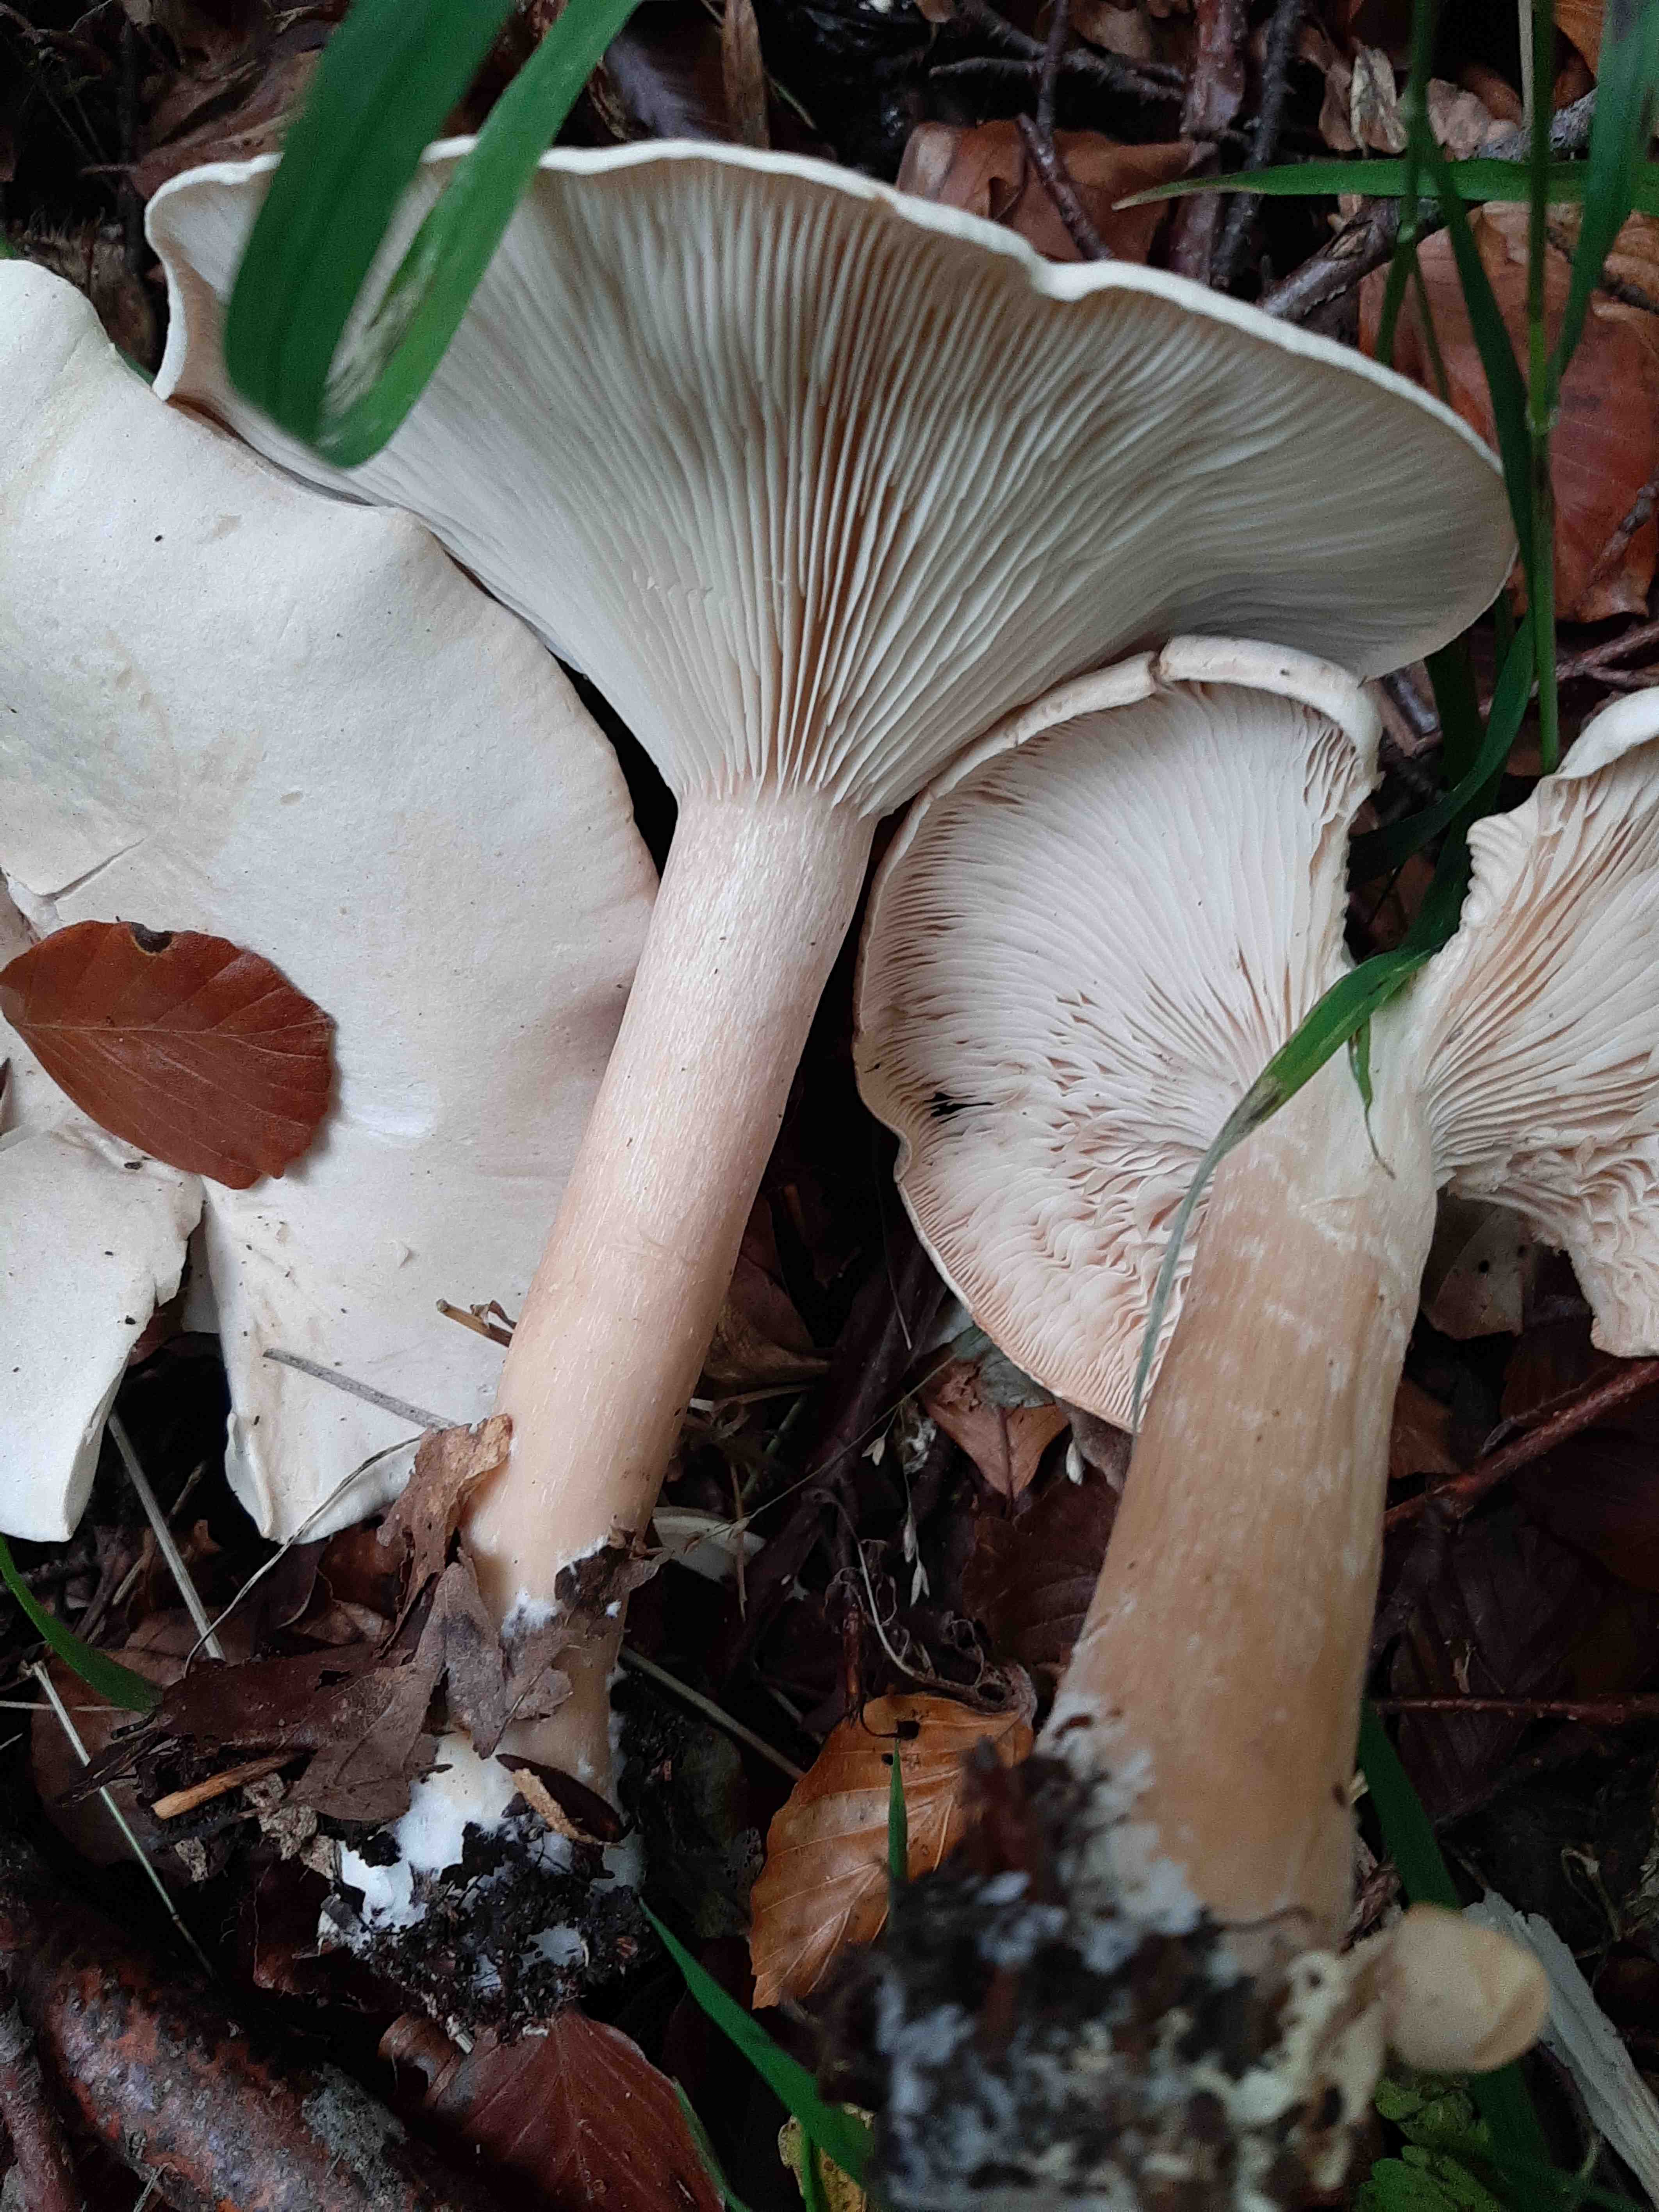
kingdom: Fungi
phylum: Basidiomycota
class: Agaricomycetes
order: Agaricales
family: Tricholomataceae
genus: Infundibulicybe
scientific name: Infundibulicybe geotropa
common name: stor tragthat
